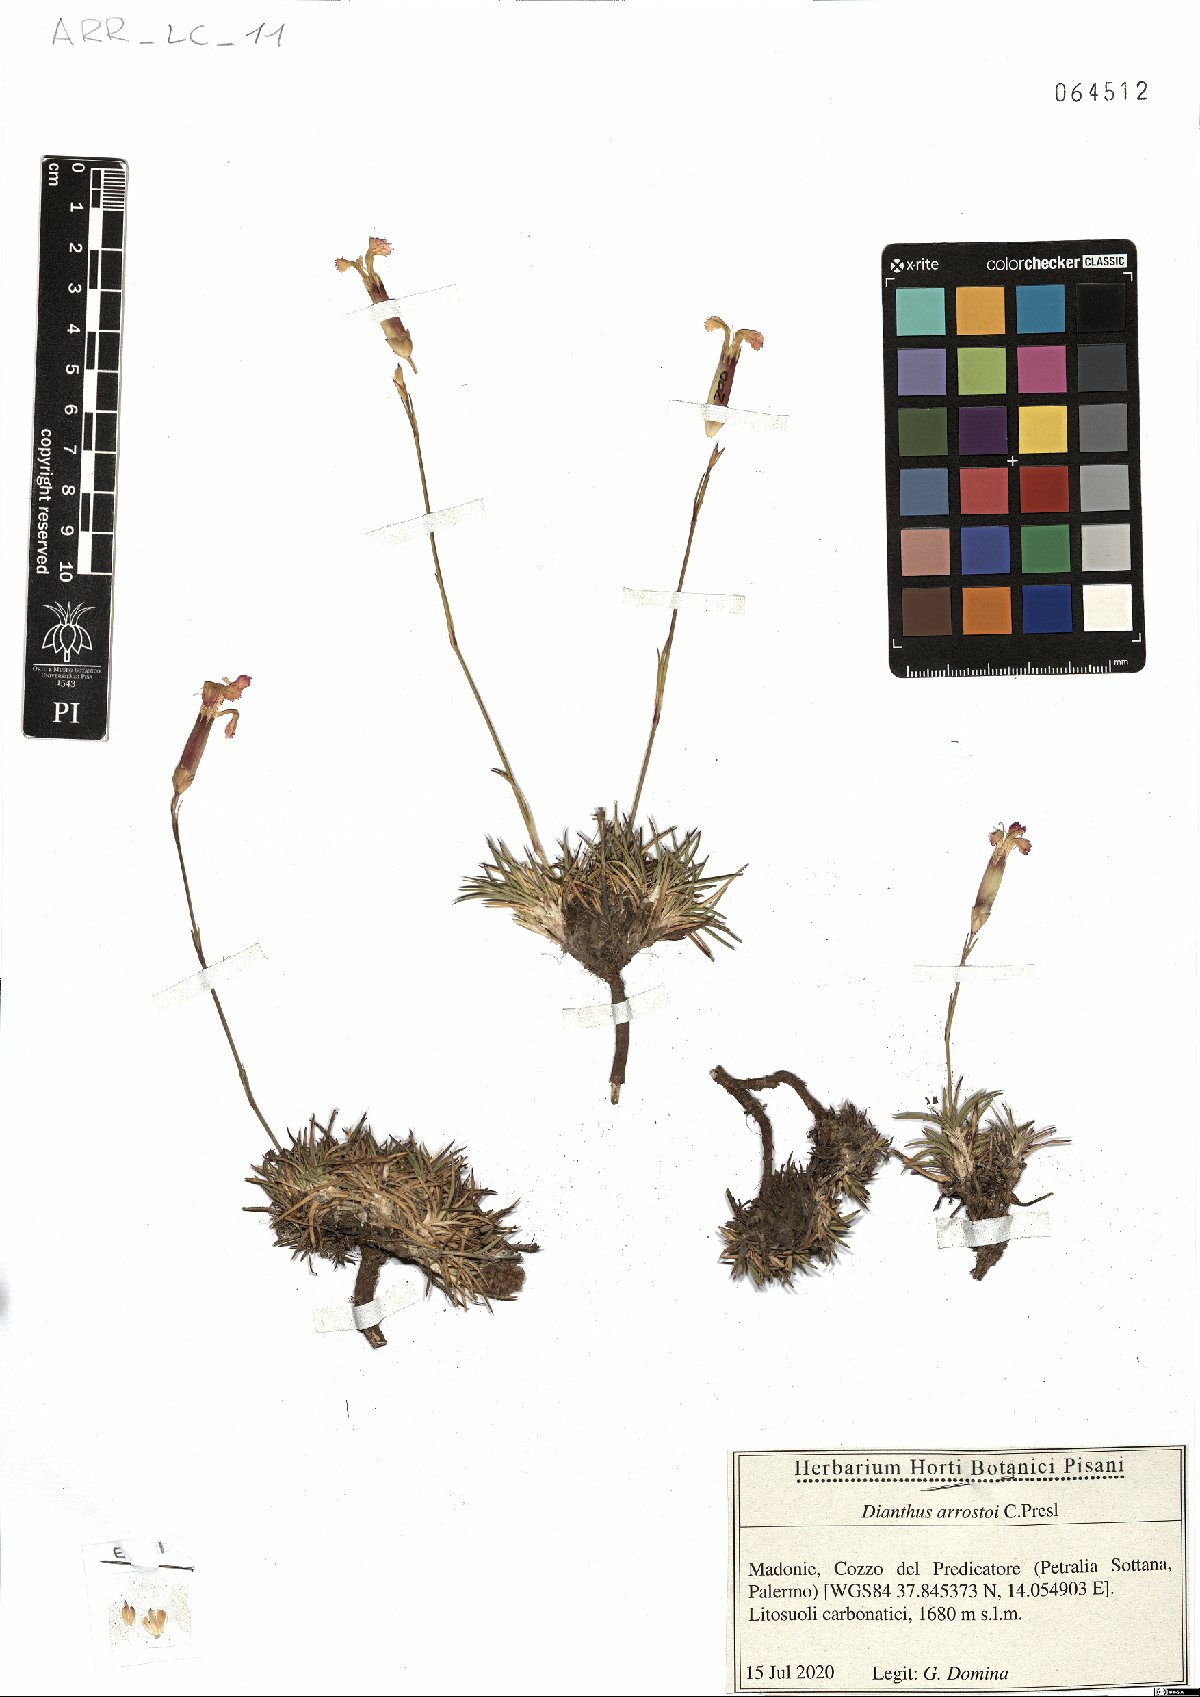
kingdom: Plantae
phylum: Tracheophyta
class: Magnoliopsida
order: Caryophyllales
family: Caryophyllaceae
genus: Dianthus
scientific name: Dianthus arrostoi
